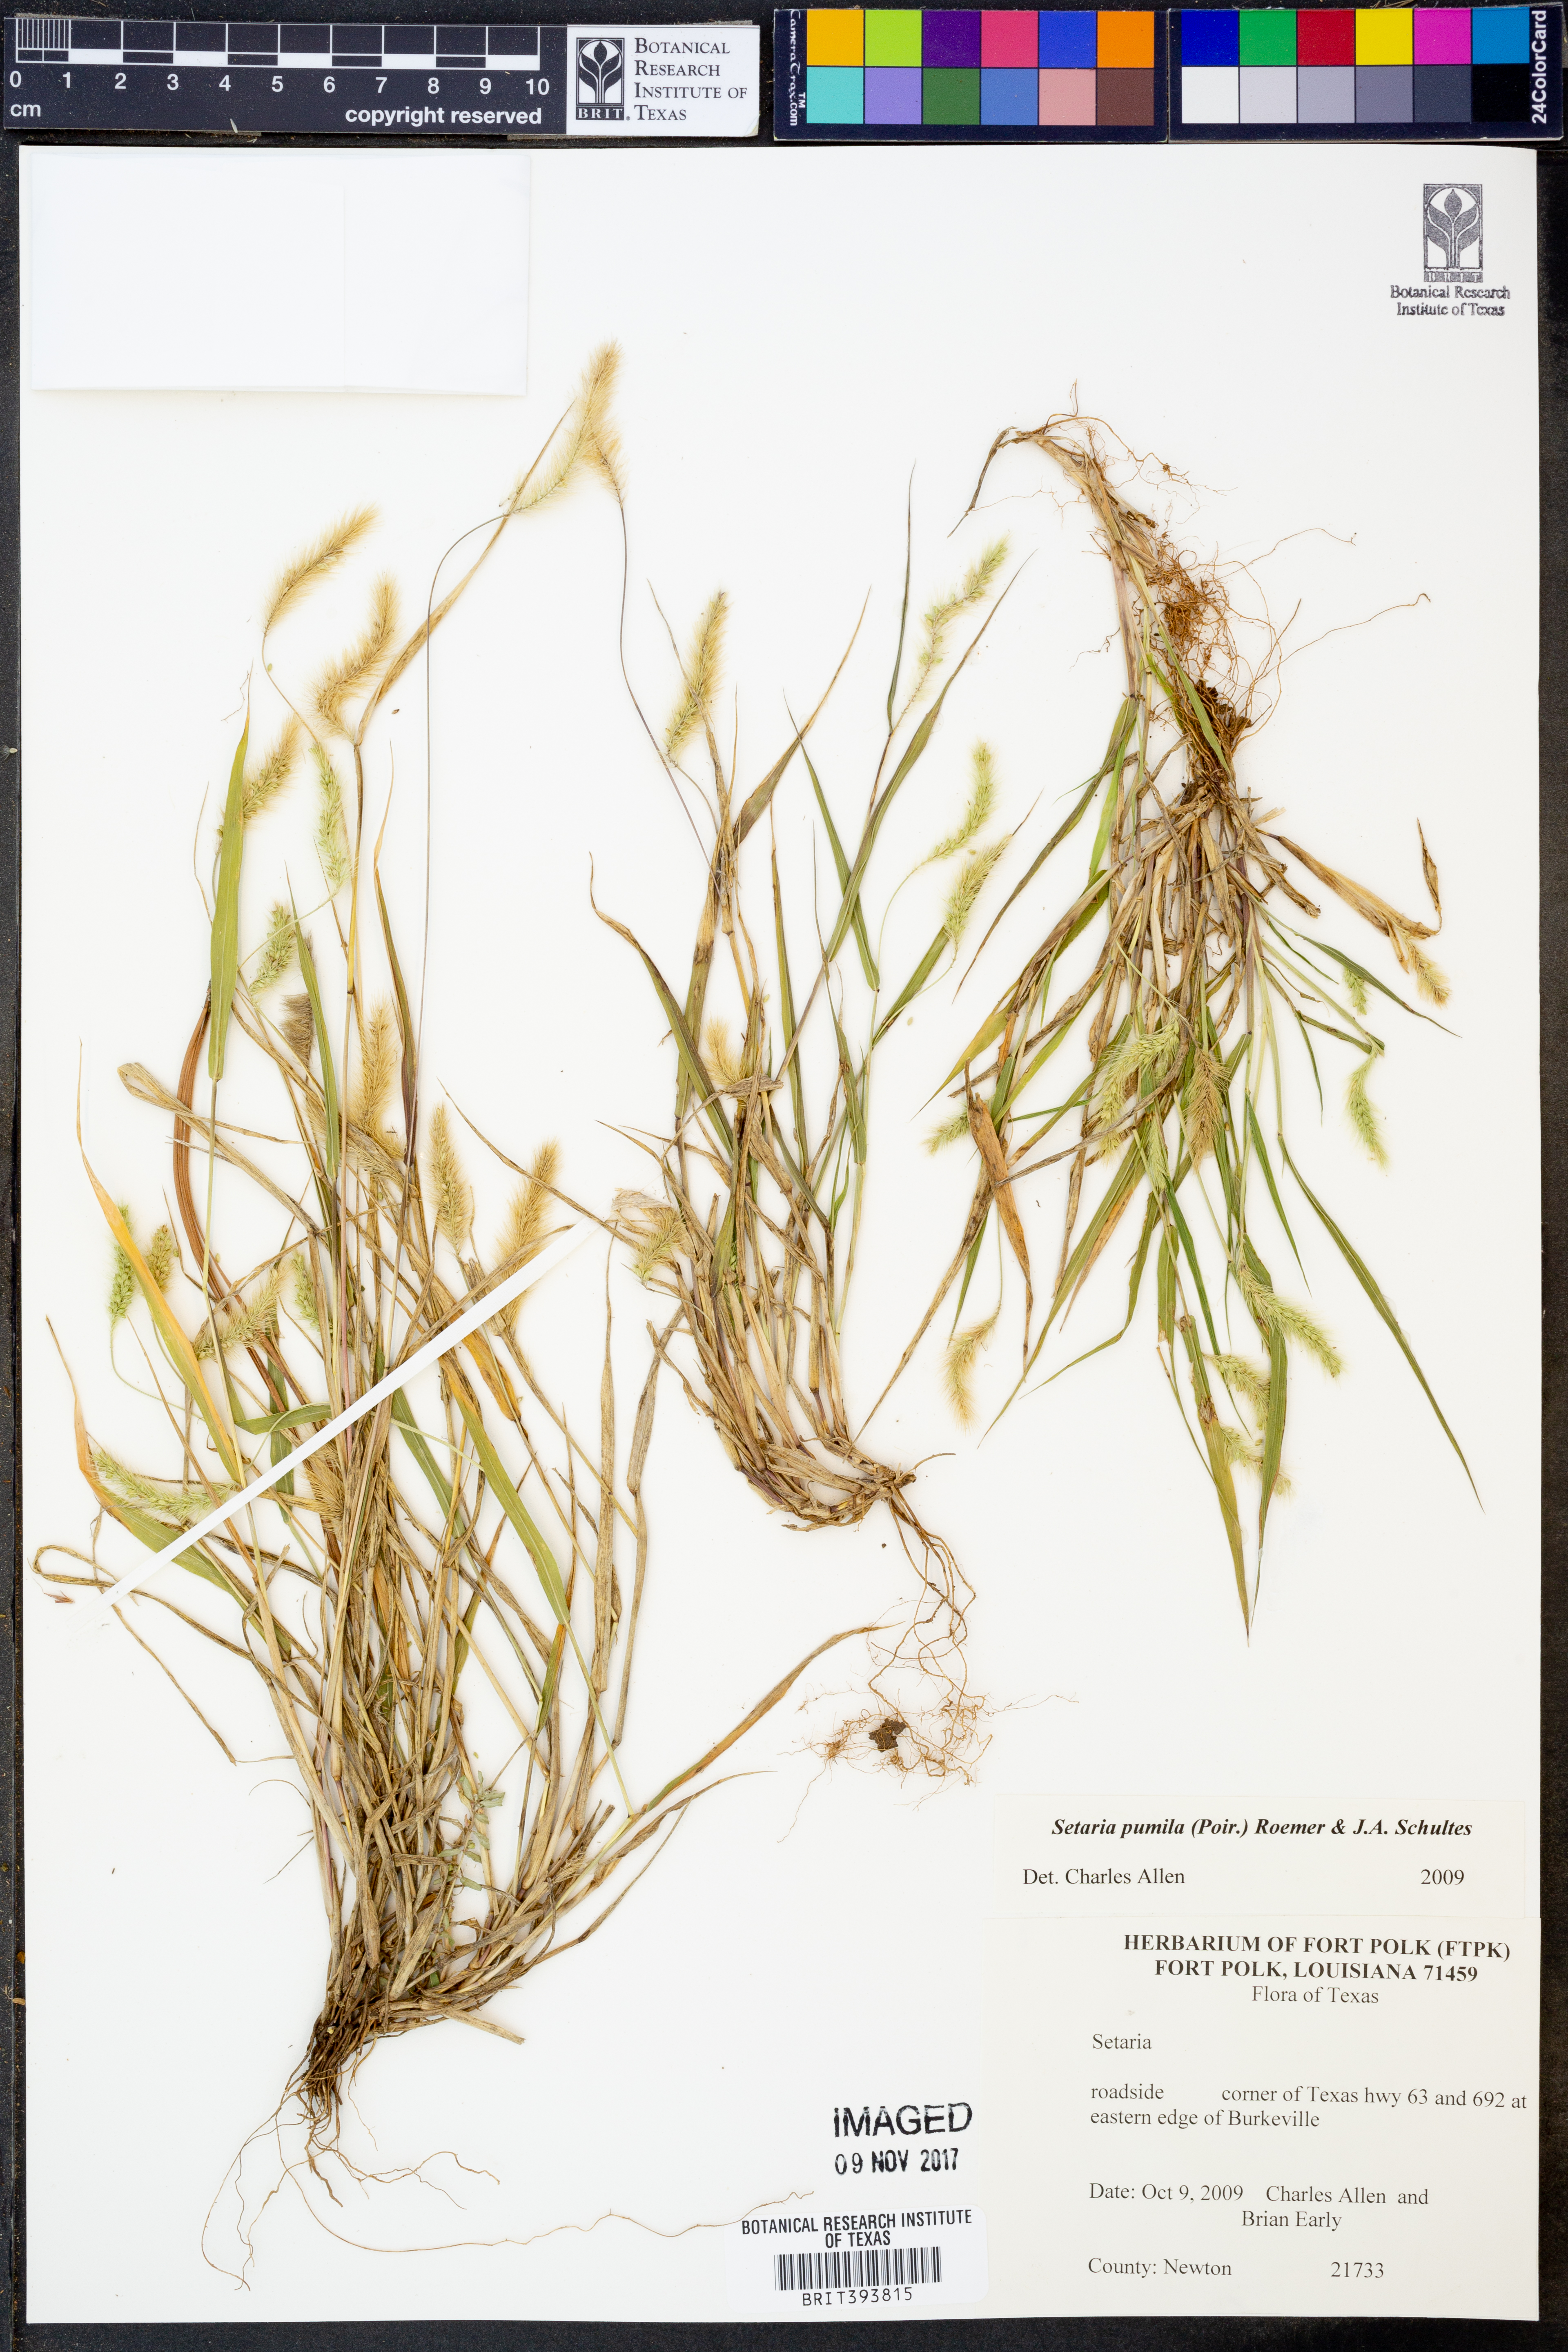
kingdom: Plantae
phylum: Tracheophyta
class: Liliopsida
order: Poales
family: Poaceae
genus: Setaria
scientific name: Setaria pumila
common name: Yellow bristle-grass
